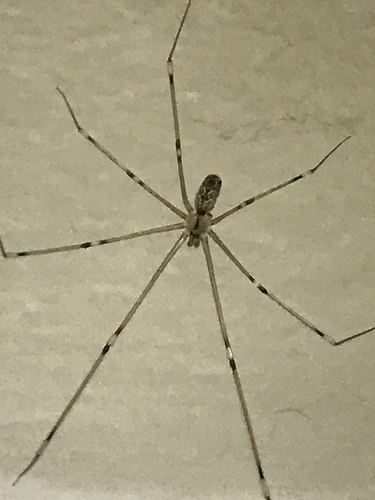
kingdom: Animalia
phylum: Arthropoda
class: Arachnida
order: Araneae
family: Pholcidae
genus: Pholcus
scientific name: Pholcus phalangioides
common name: Longbodied cellar spider
